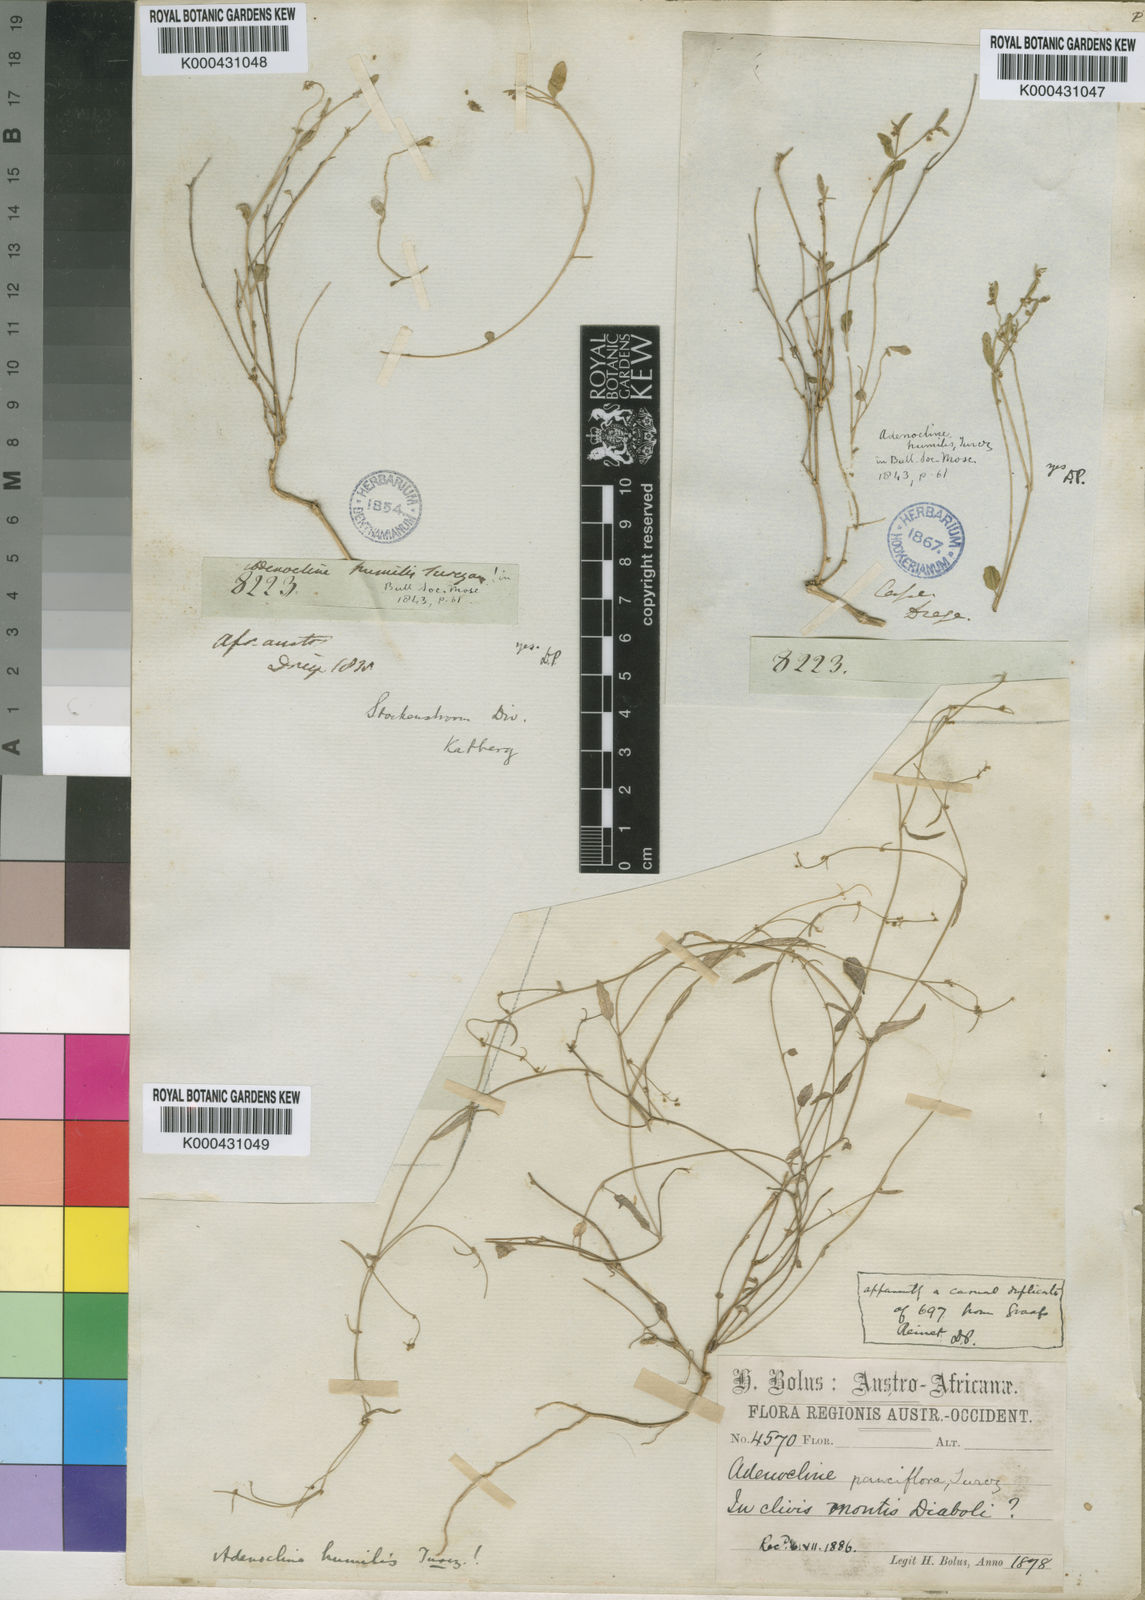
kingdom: Plantae
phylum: Tracheophyta
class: Magnoliopsida
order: Malpighiales
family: Euphorbiaceae
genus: Adenocline
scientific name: Adenocline pauciflora
